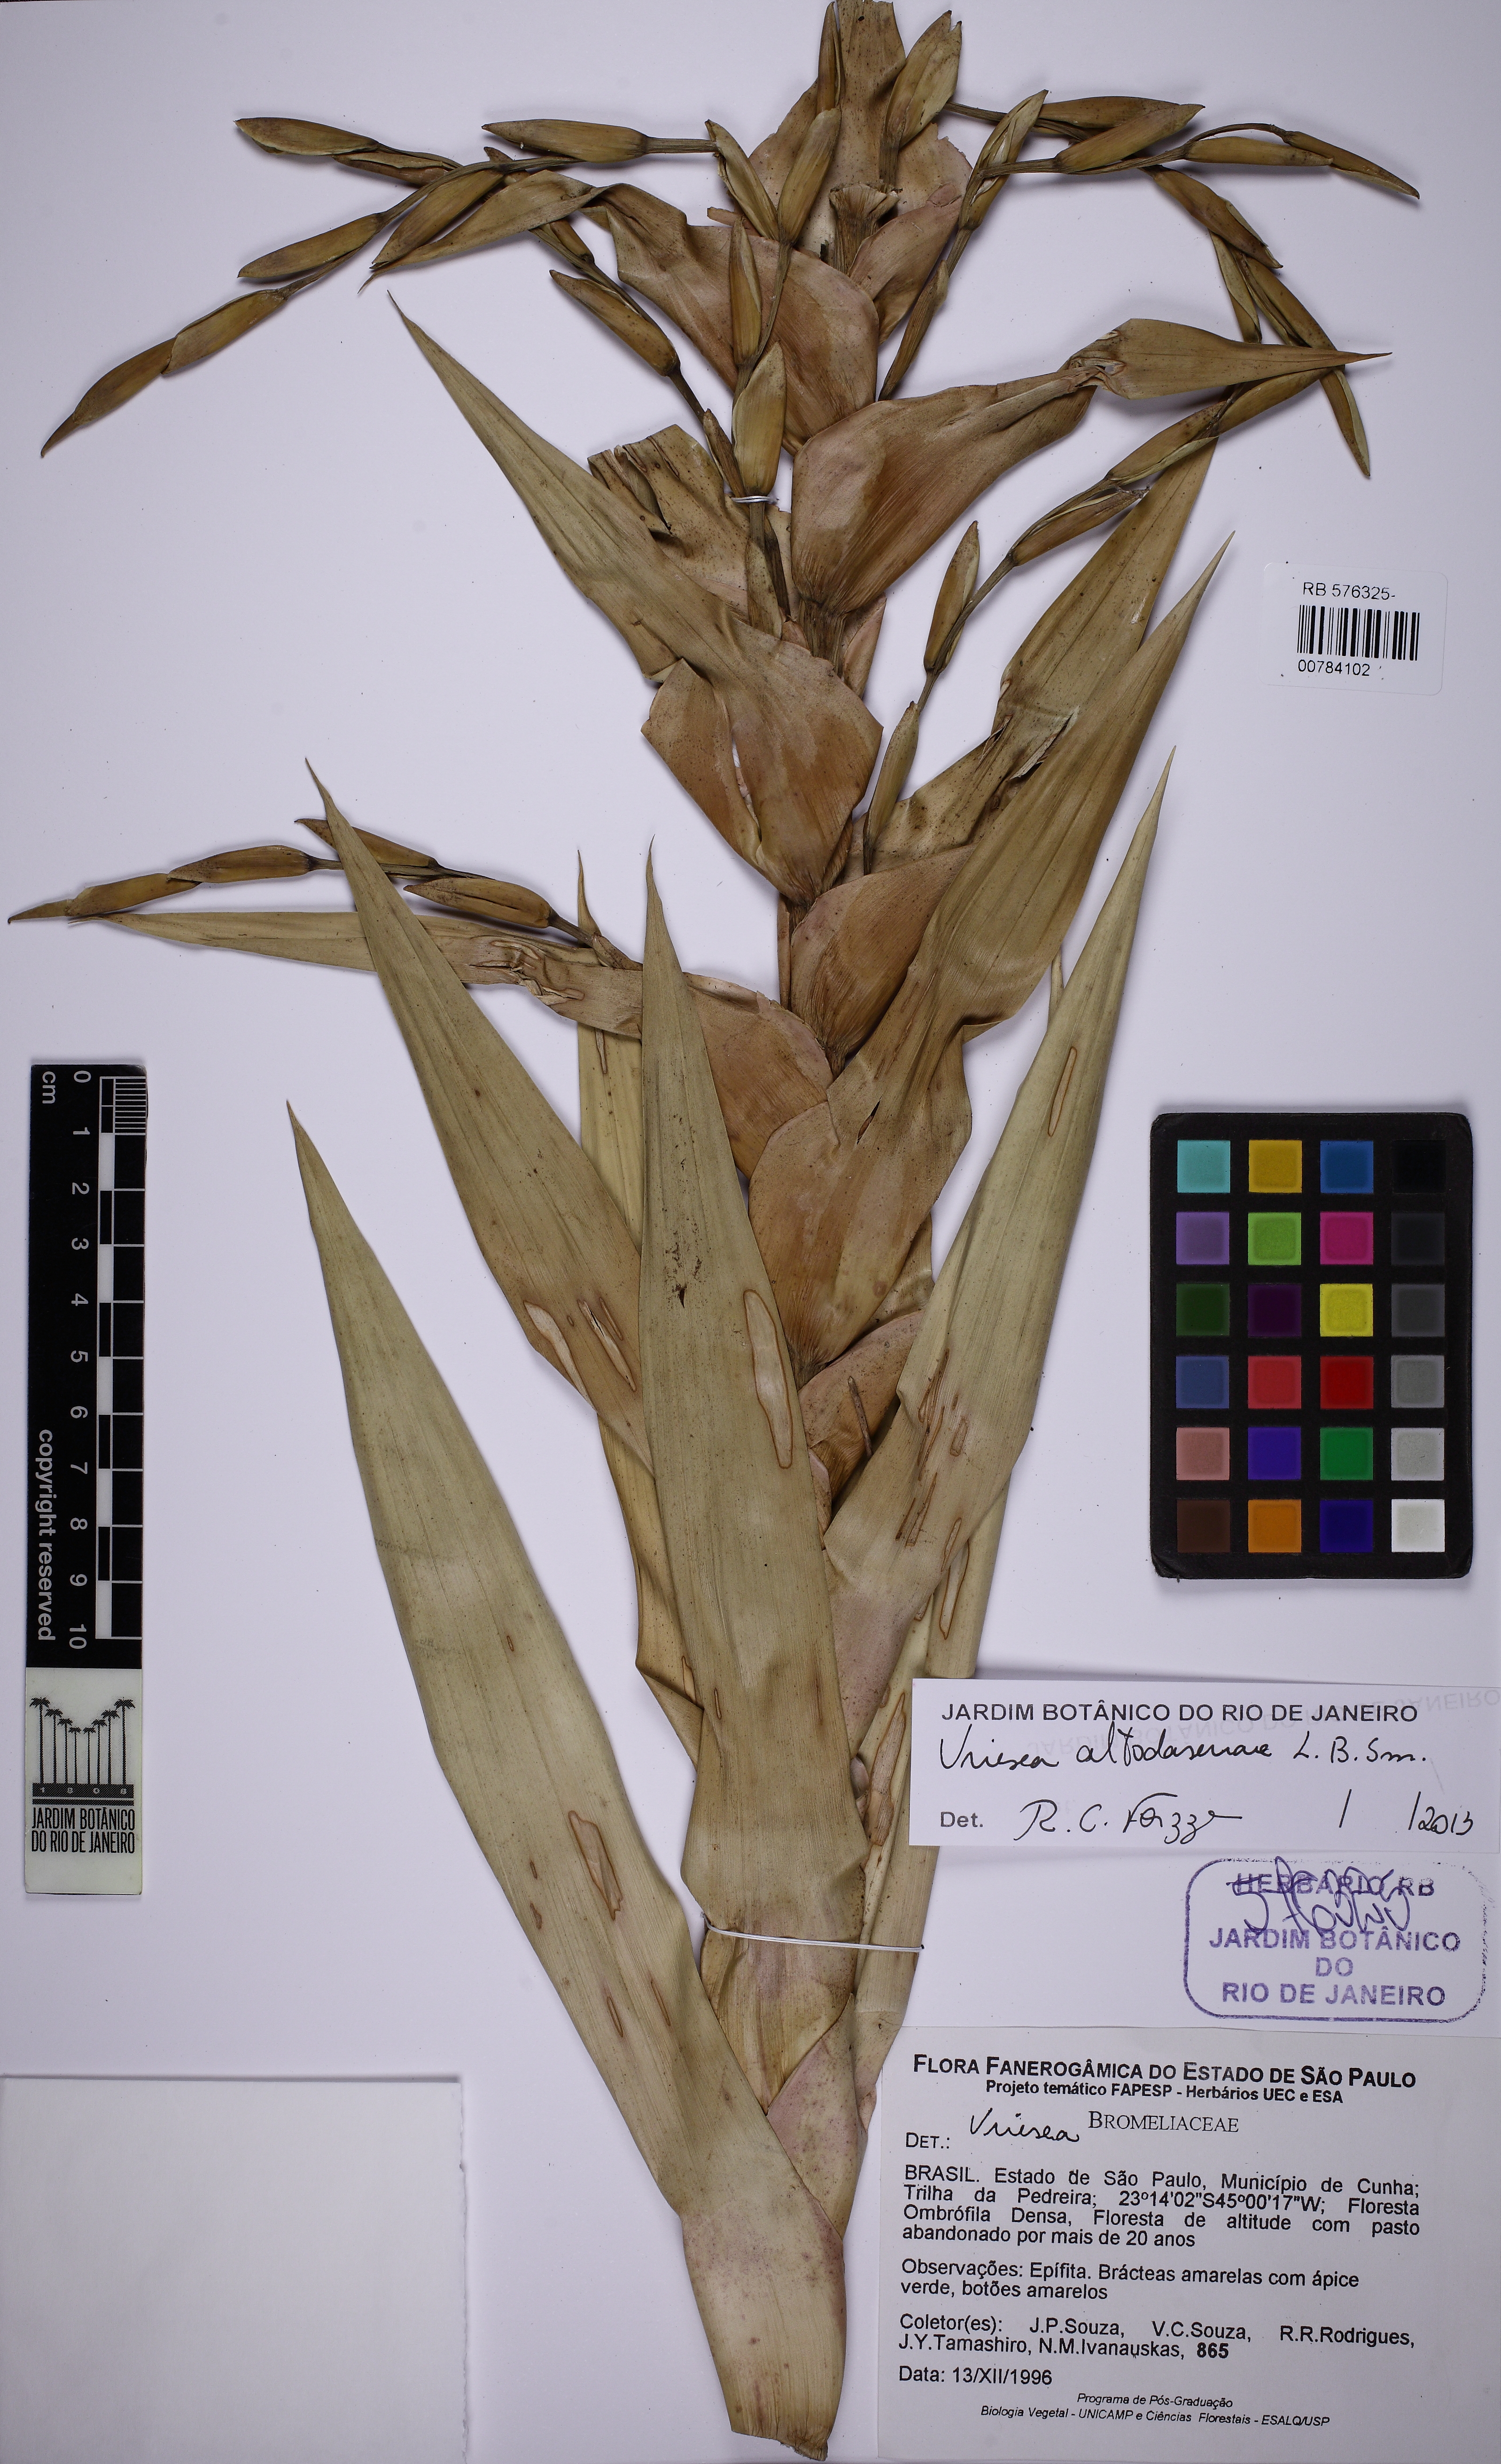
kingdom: Plantae
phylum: Tracheophyta
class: Liliopsida
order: Poales
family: Bromeliaceae
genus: Vriesea
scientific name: Vriesea altodaserrae
